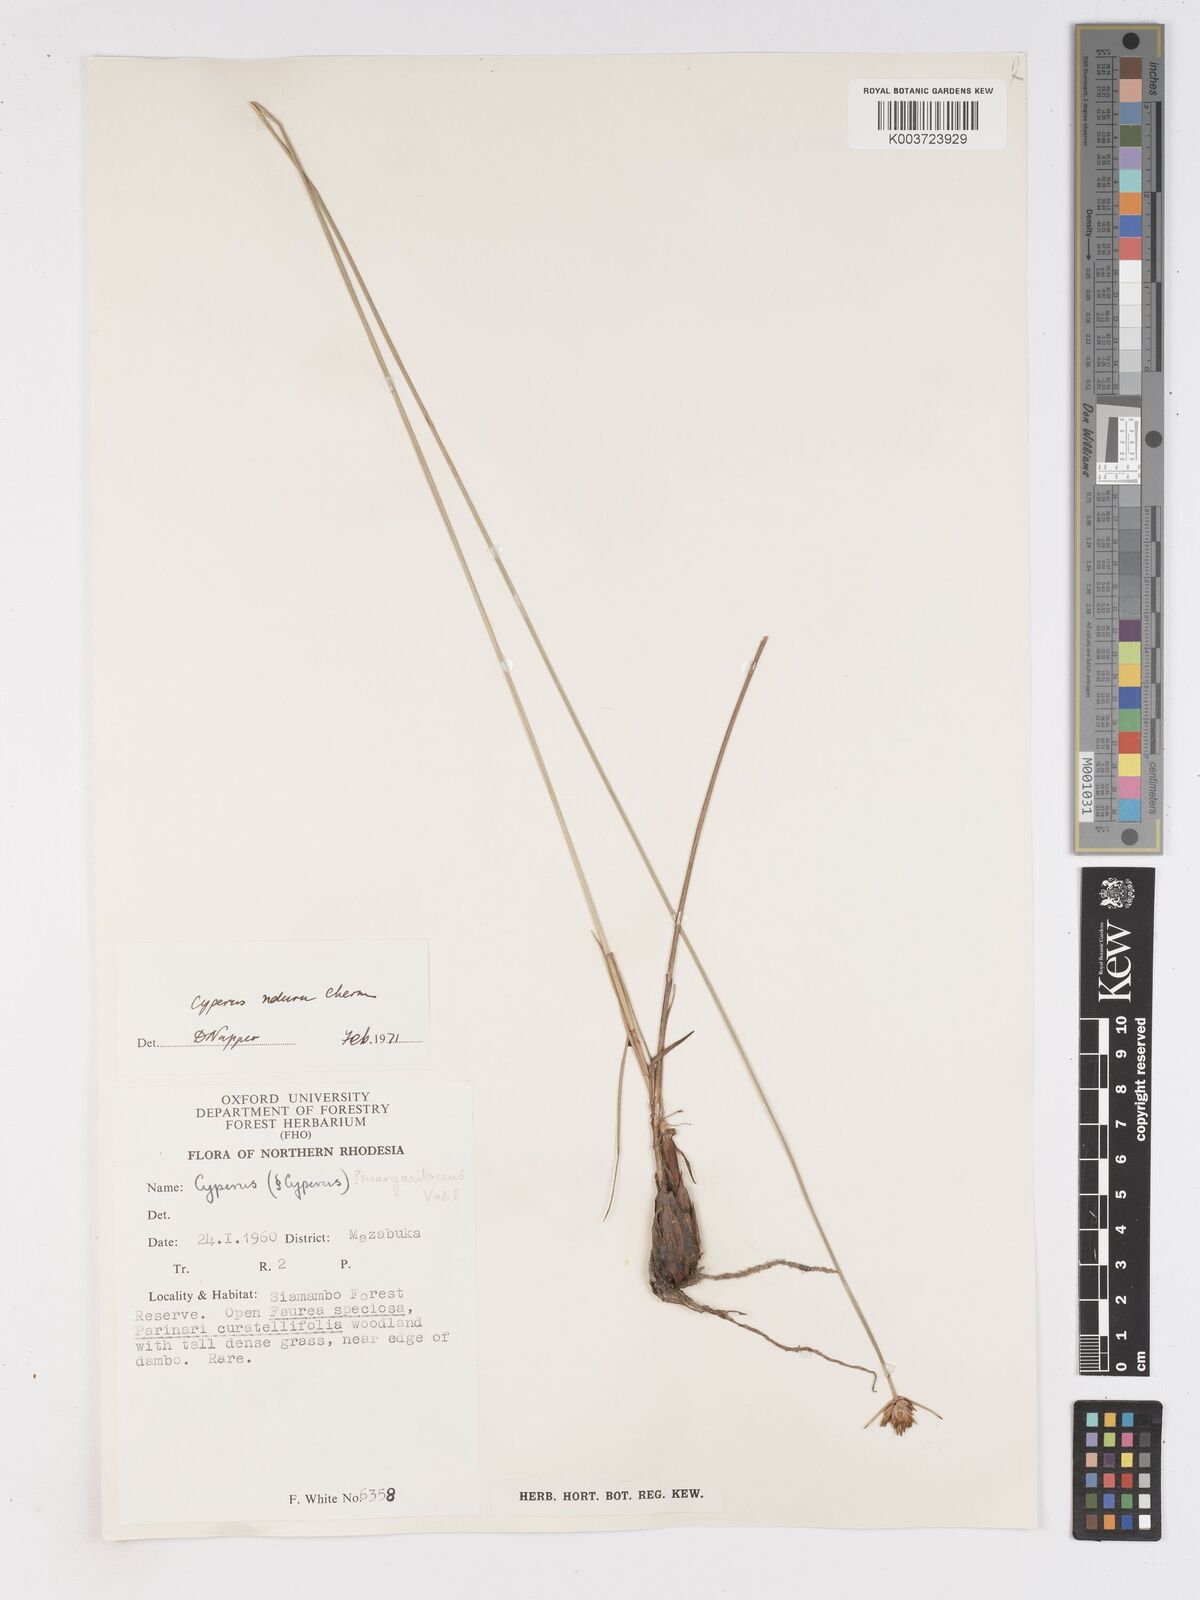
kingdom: Plantae
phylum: Tracheophyta
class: Liliopsida
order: Poales
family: Cyperaceae
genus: Cyperus
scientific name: Cyperus nduru
